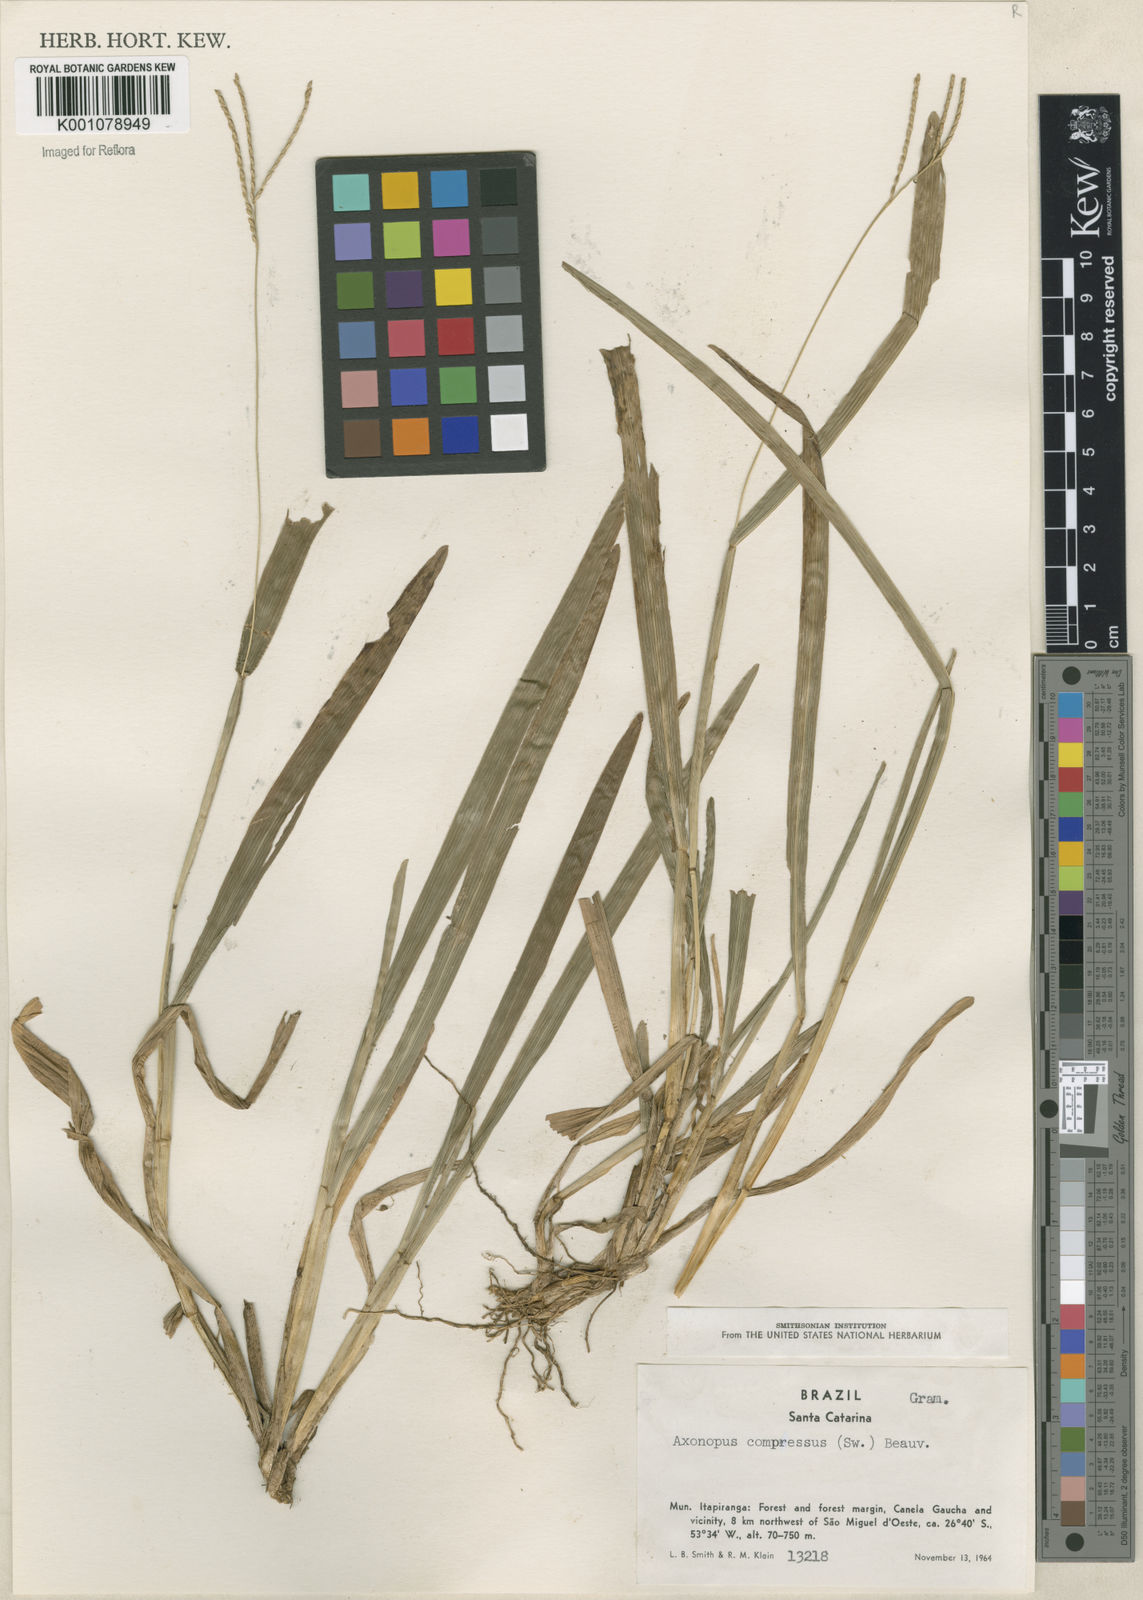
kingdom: Plantae
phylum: Tracheophyta
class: Liliopsida
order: Poales
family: Poaceae
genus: Axonopus
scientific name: Axonopus compressus
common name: American carpet grass
